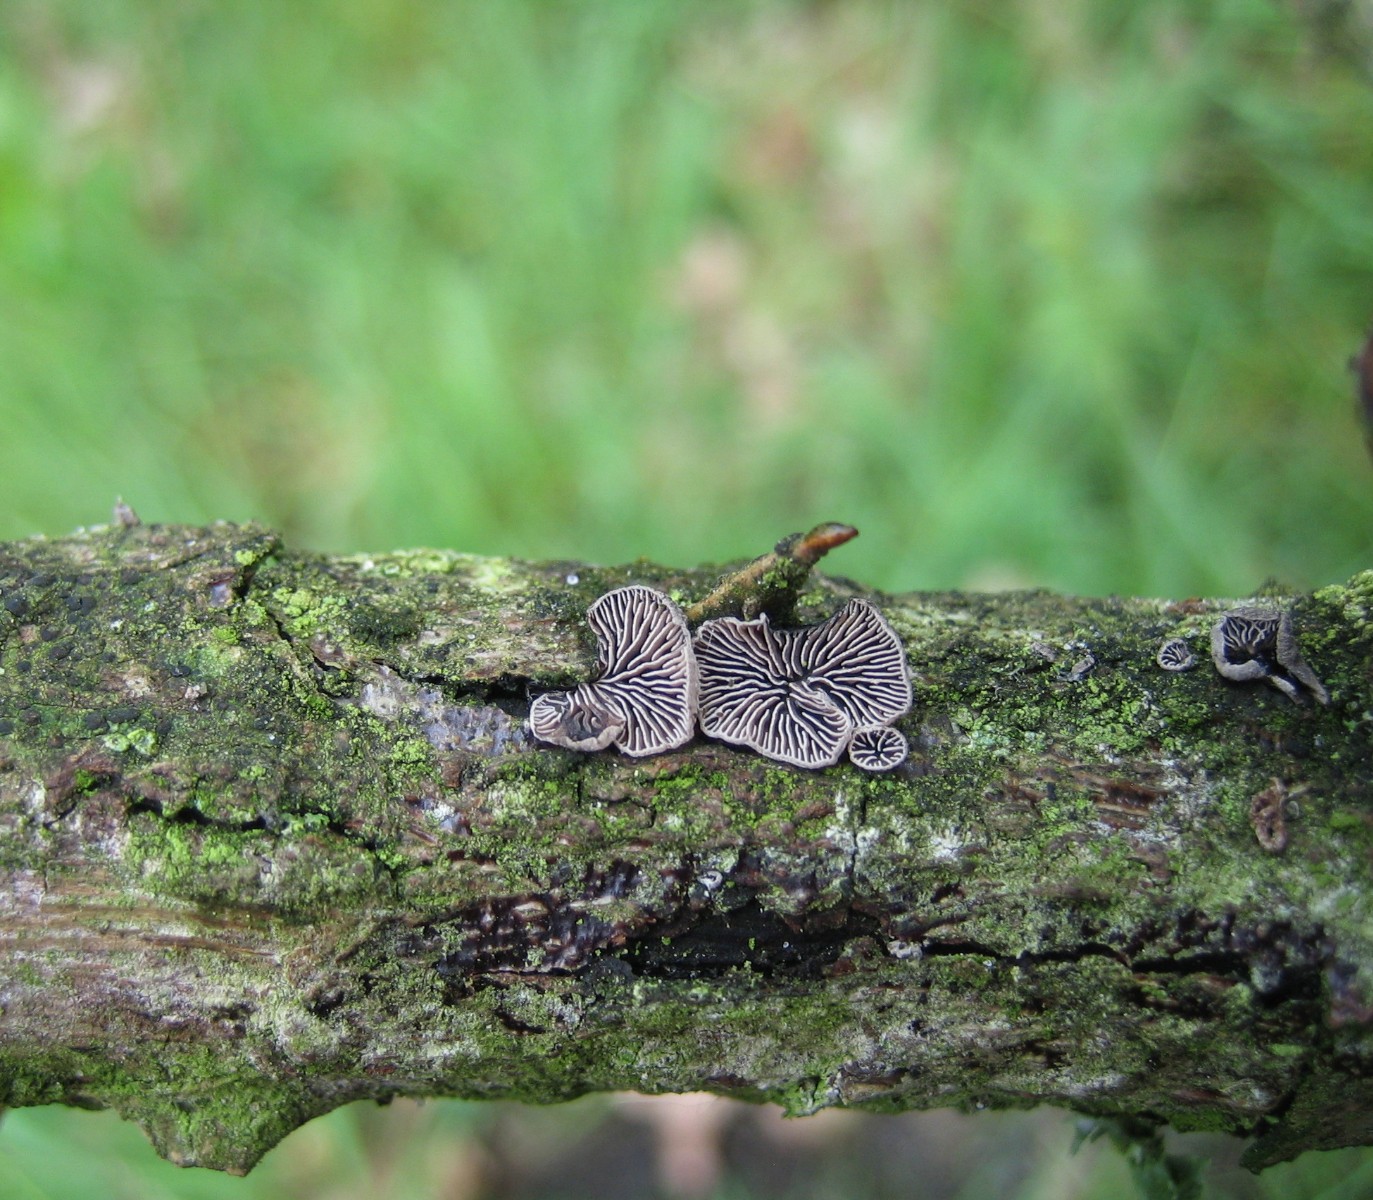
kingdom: Fungi
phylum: Basidiomycota
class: Agaricomycetes
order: Agaricales
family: Pleurotaceae
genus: Resupinatus
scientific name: Resupinatus applicatus
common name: lysfiltet barkhat
